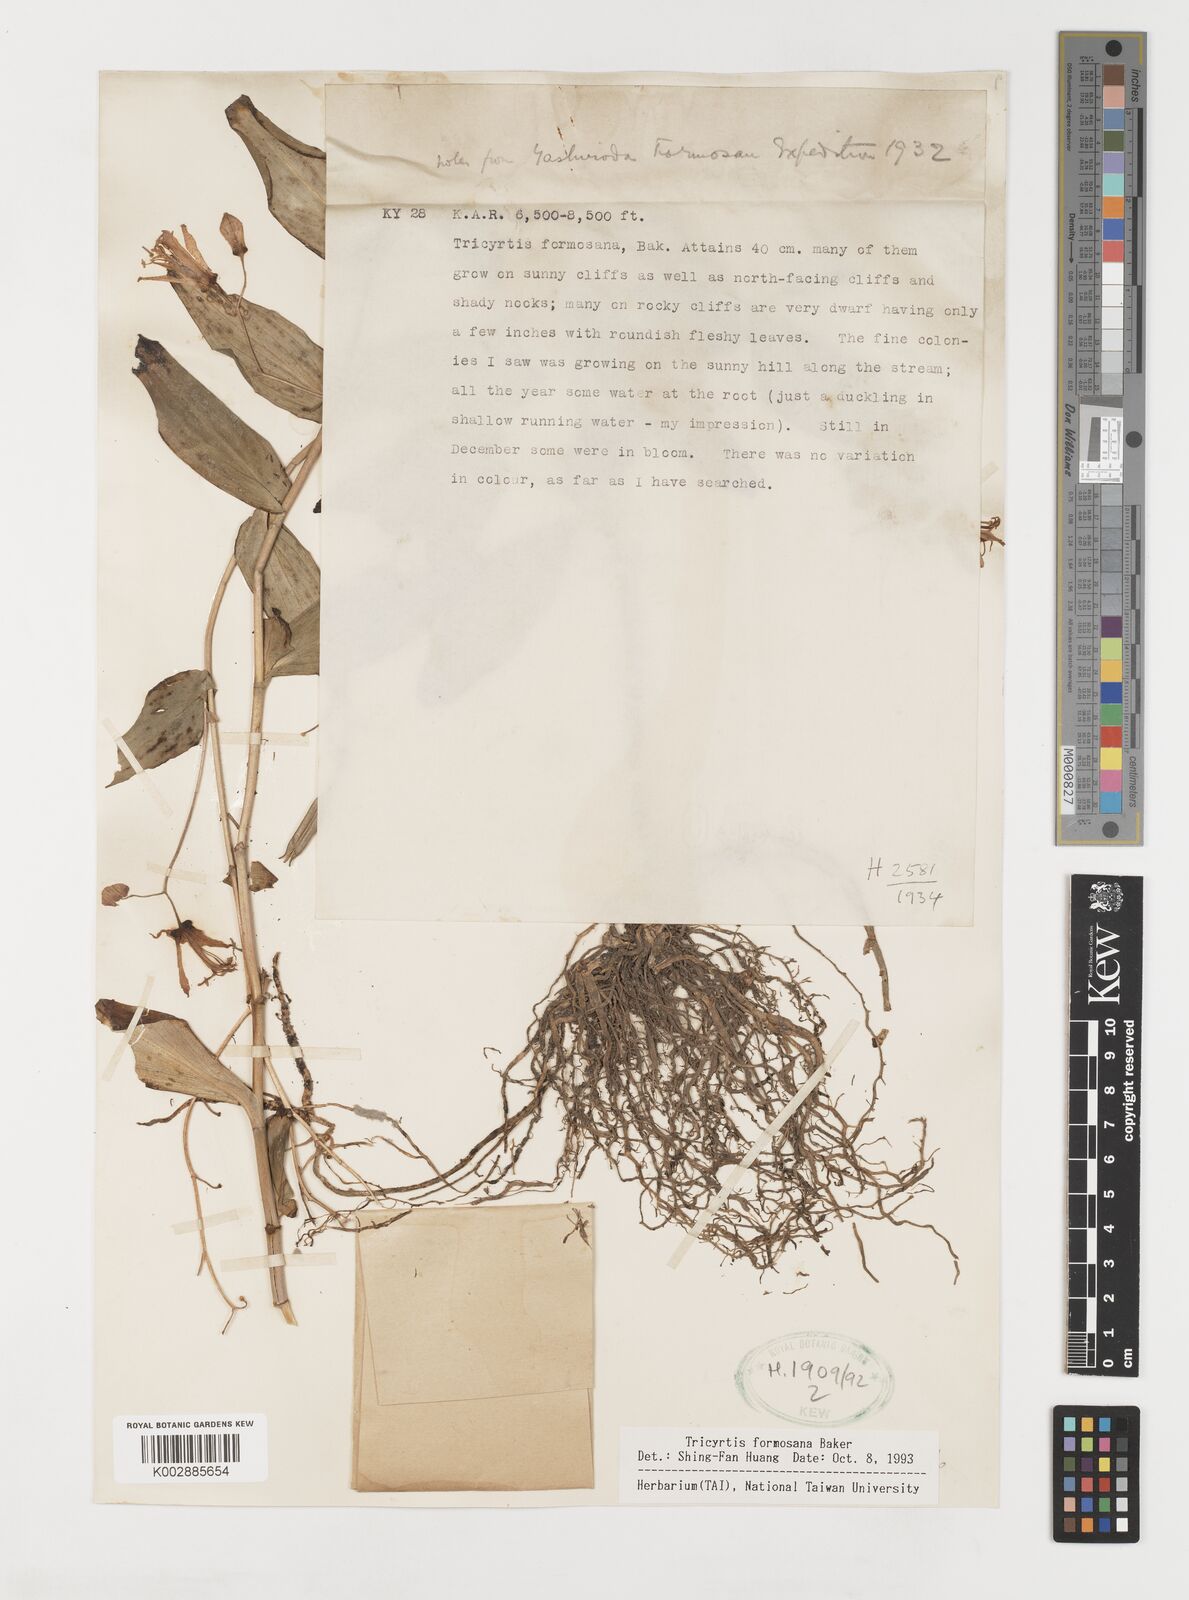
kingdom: Plantae
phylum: Tracheophyta
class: Liliopsida
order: Liliales
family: Liliaceae
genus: Tricyrtis
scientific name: Tricyrtis formosana
